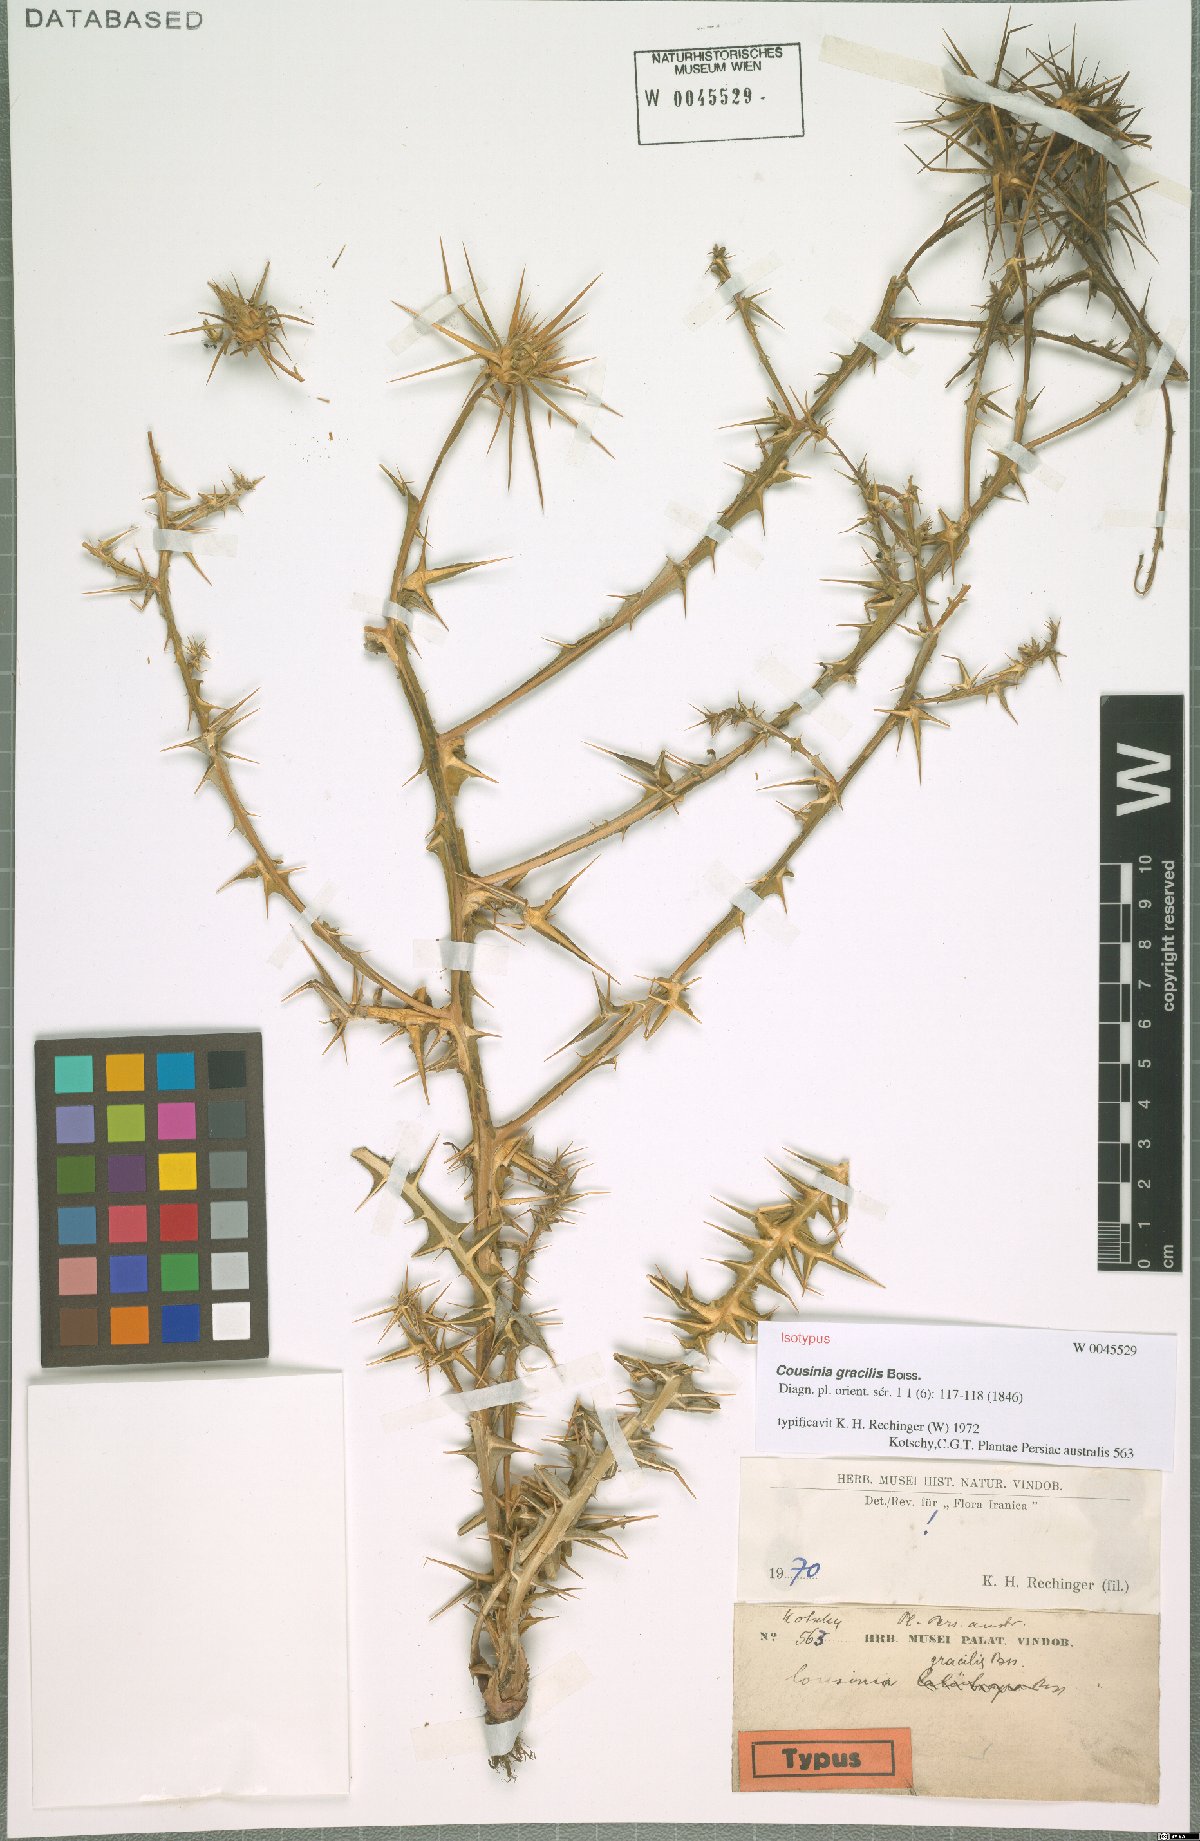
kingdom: Plantae
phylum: Tracheophyta
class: Magnoliopsida
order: Asterales
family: Asteraceae
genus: Cousinia
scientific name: Cousinia gracilis
